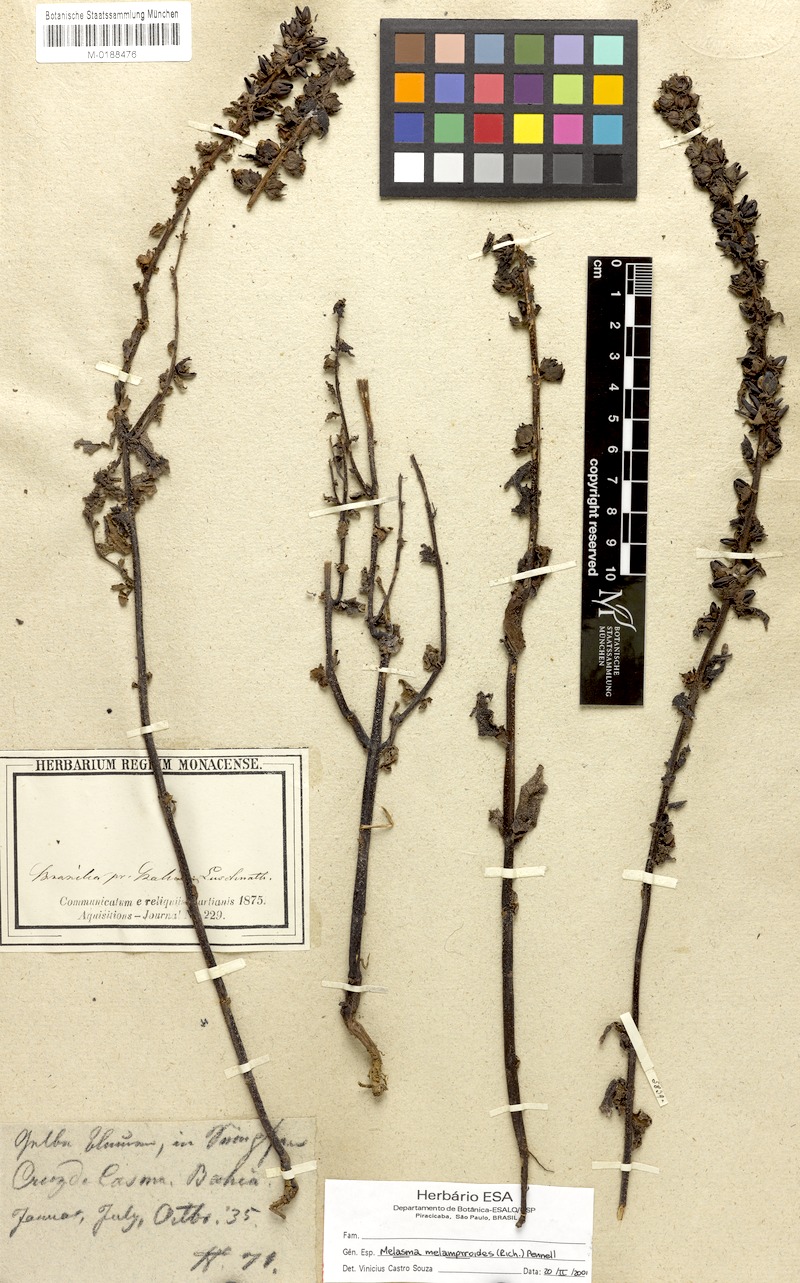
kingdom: Plantae
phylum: Tracheophyta
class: Magnoliopsida
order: Lamiales
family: Orobanchaceae
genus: Melasma
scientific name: Melasma melampyroides
